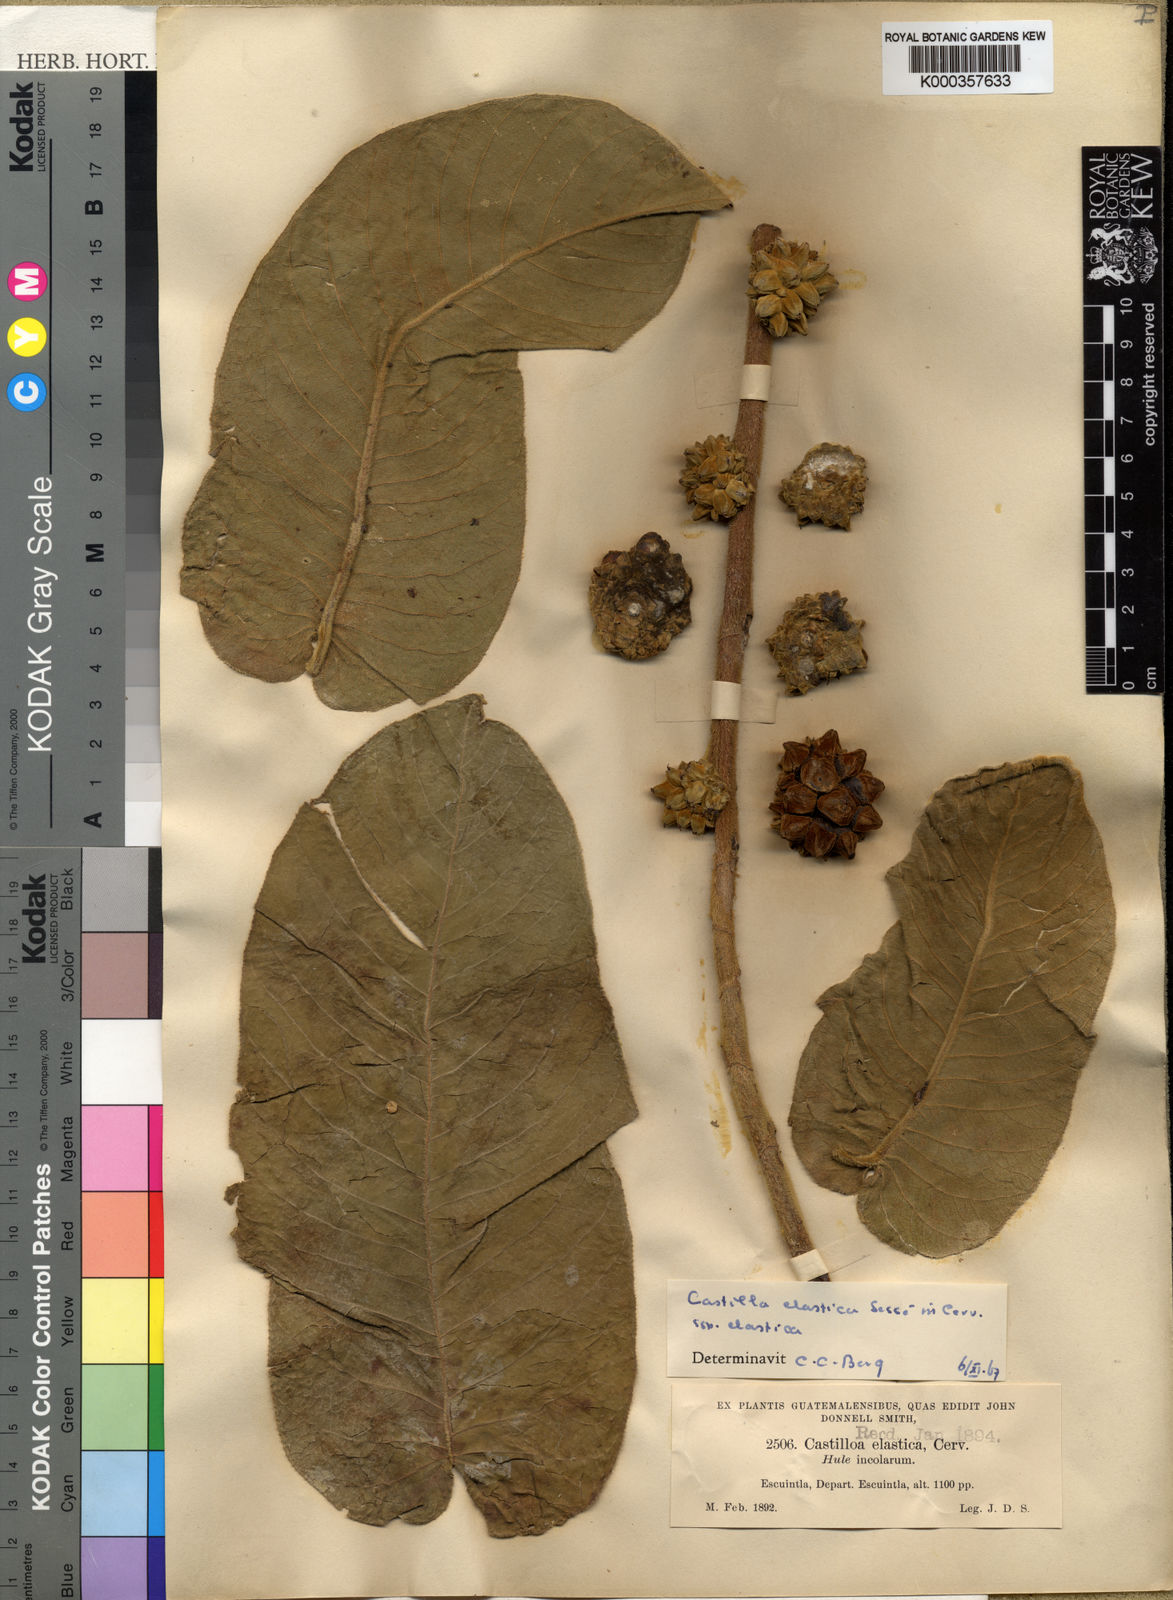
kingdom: Plantae
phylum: Tracheophyta
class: Magnoliopsida
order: Rosales
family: Moraceae
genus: Castilla
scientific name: Castilla
